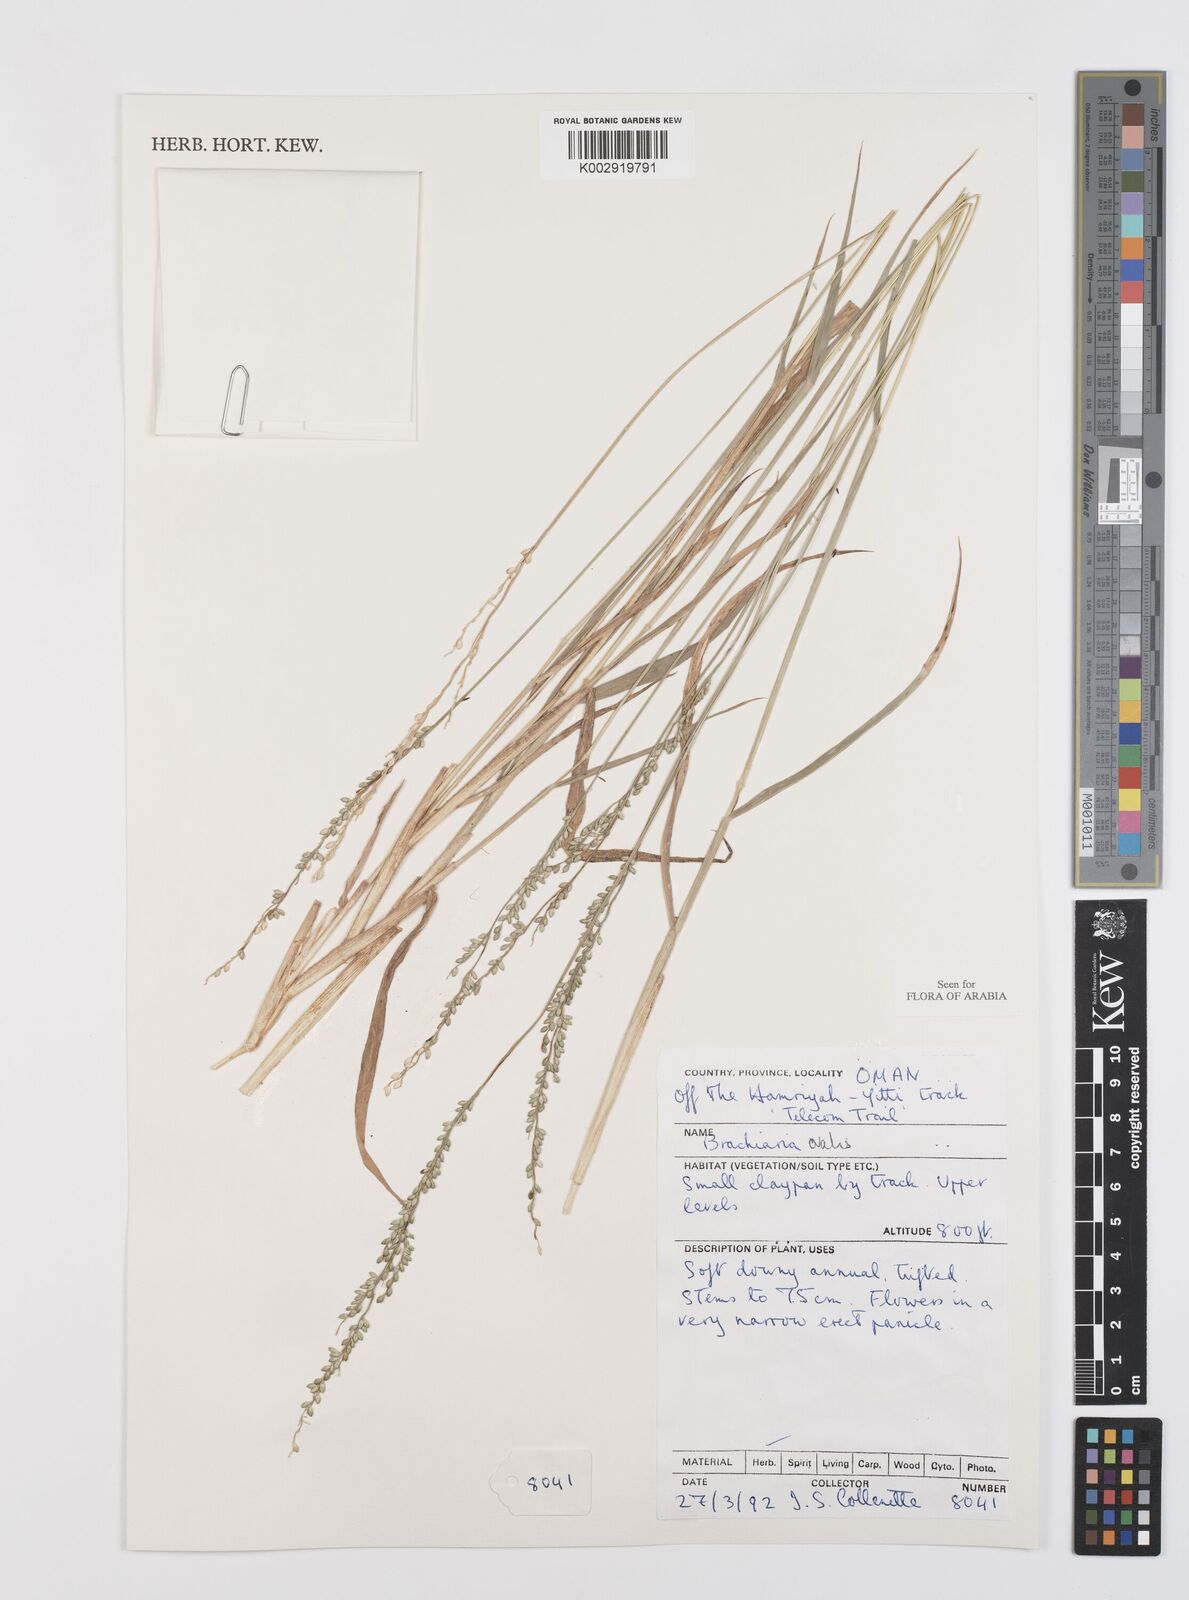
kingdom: Plantae
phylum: Tracheophyta
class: Liliopsida
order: Poales
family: Poaceae
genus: Urochloa
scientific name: Urochloa ovalis
